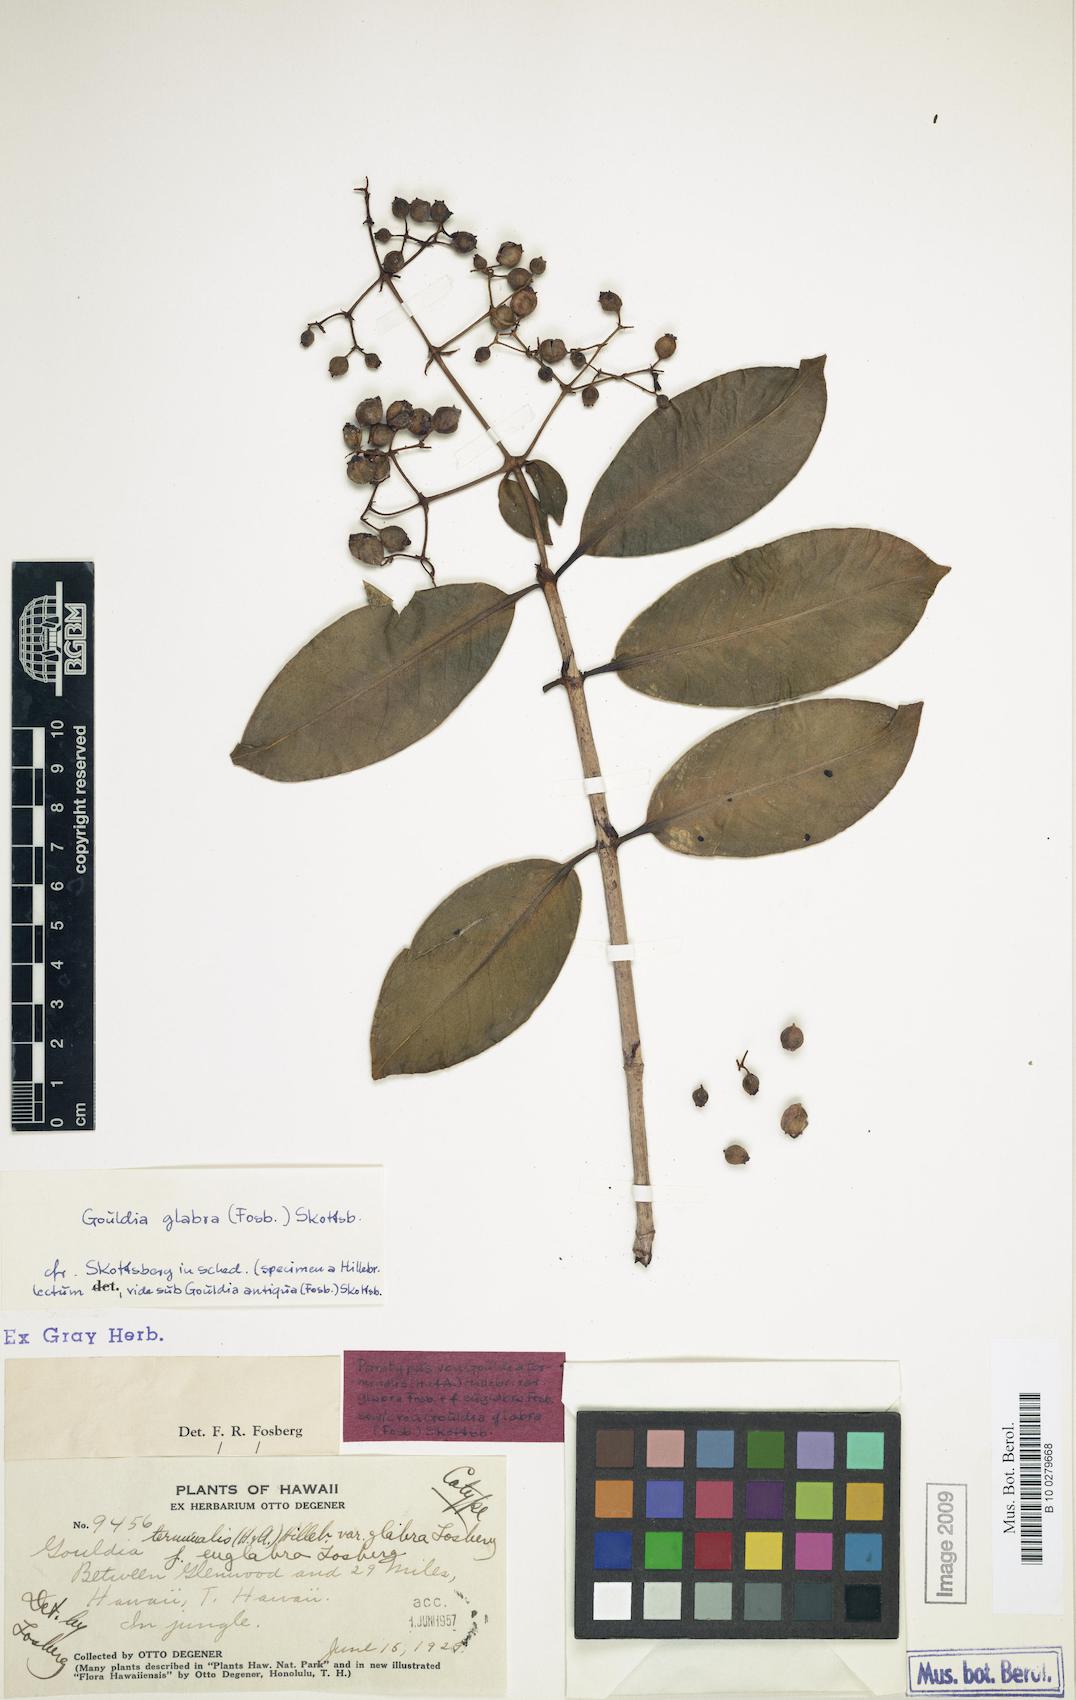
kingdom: Plantae
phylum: Tracheophyta
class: Magnoliopsida
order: Gentianales
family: Rubiaceae
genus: Kadua
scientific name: Kadua affinis
